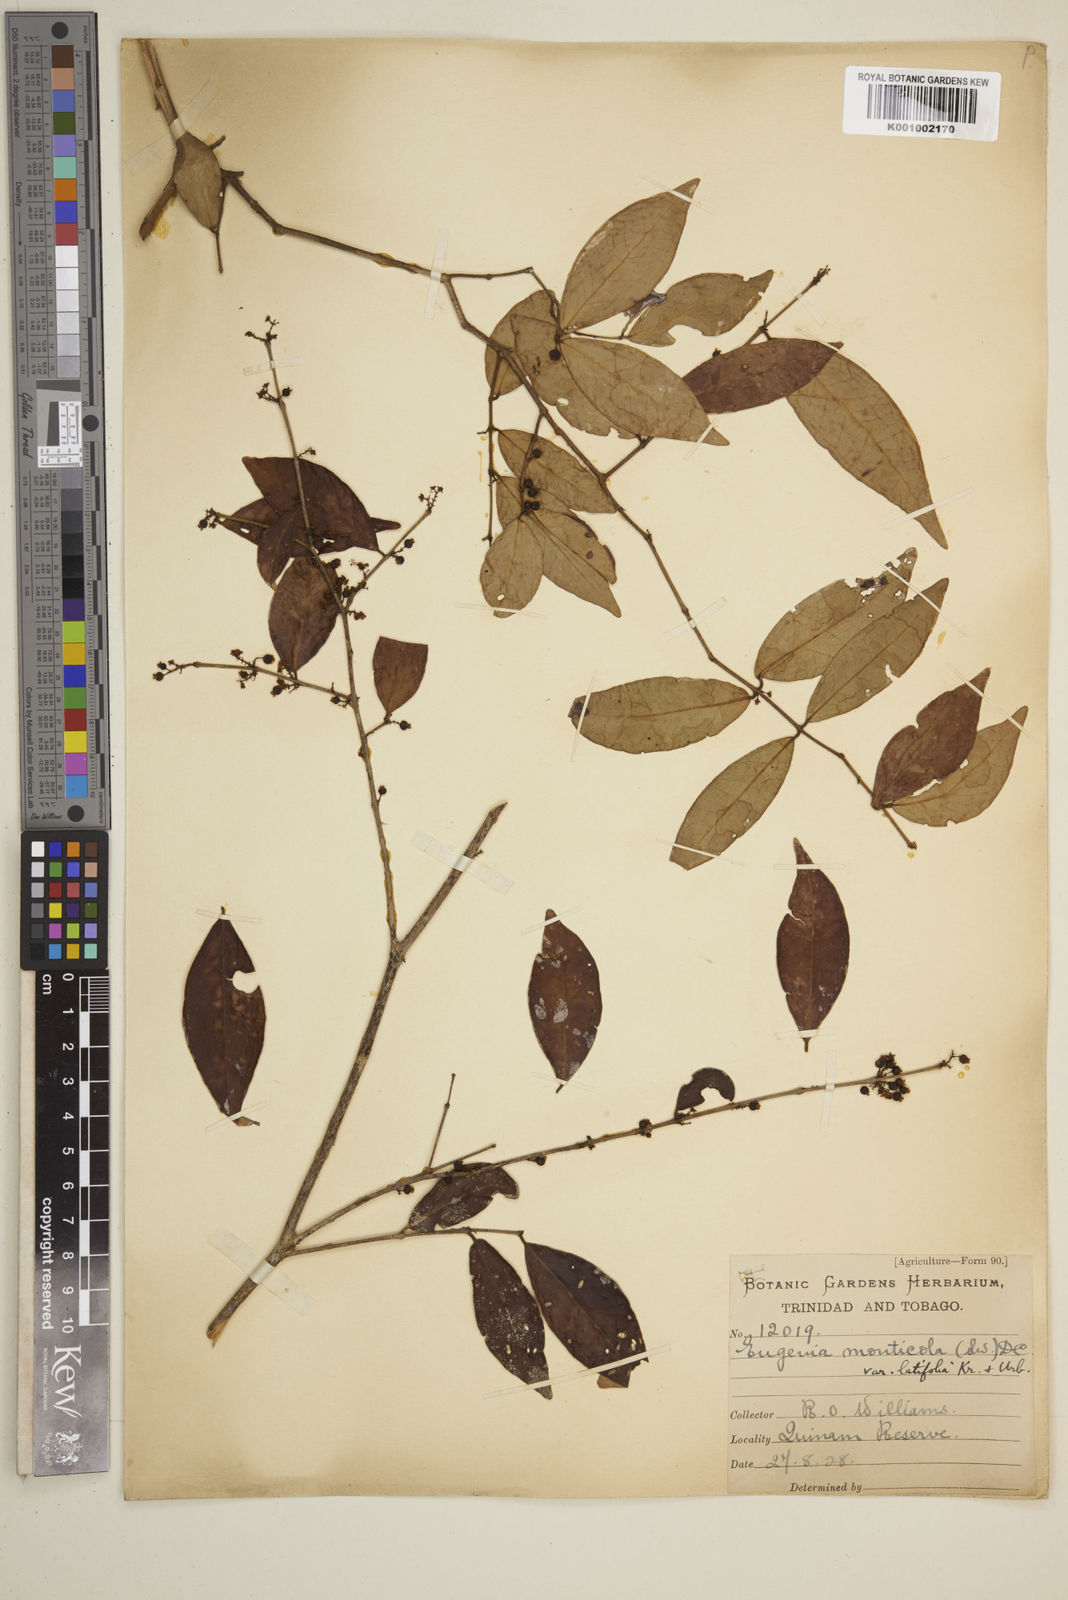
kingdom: Plantae
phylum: Tracheophyta
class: Magnoliopsida
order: Myrtales
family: Myrtaceae
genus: Eugenia
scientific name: Eugenia monticola
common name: Birds berry
